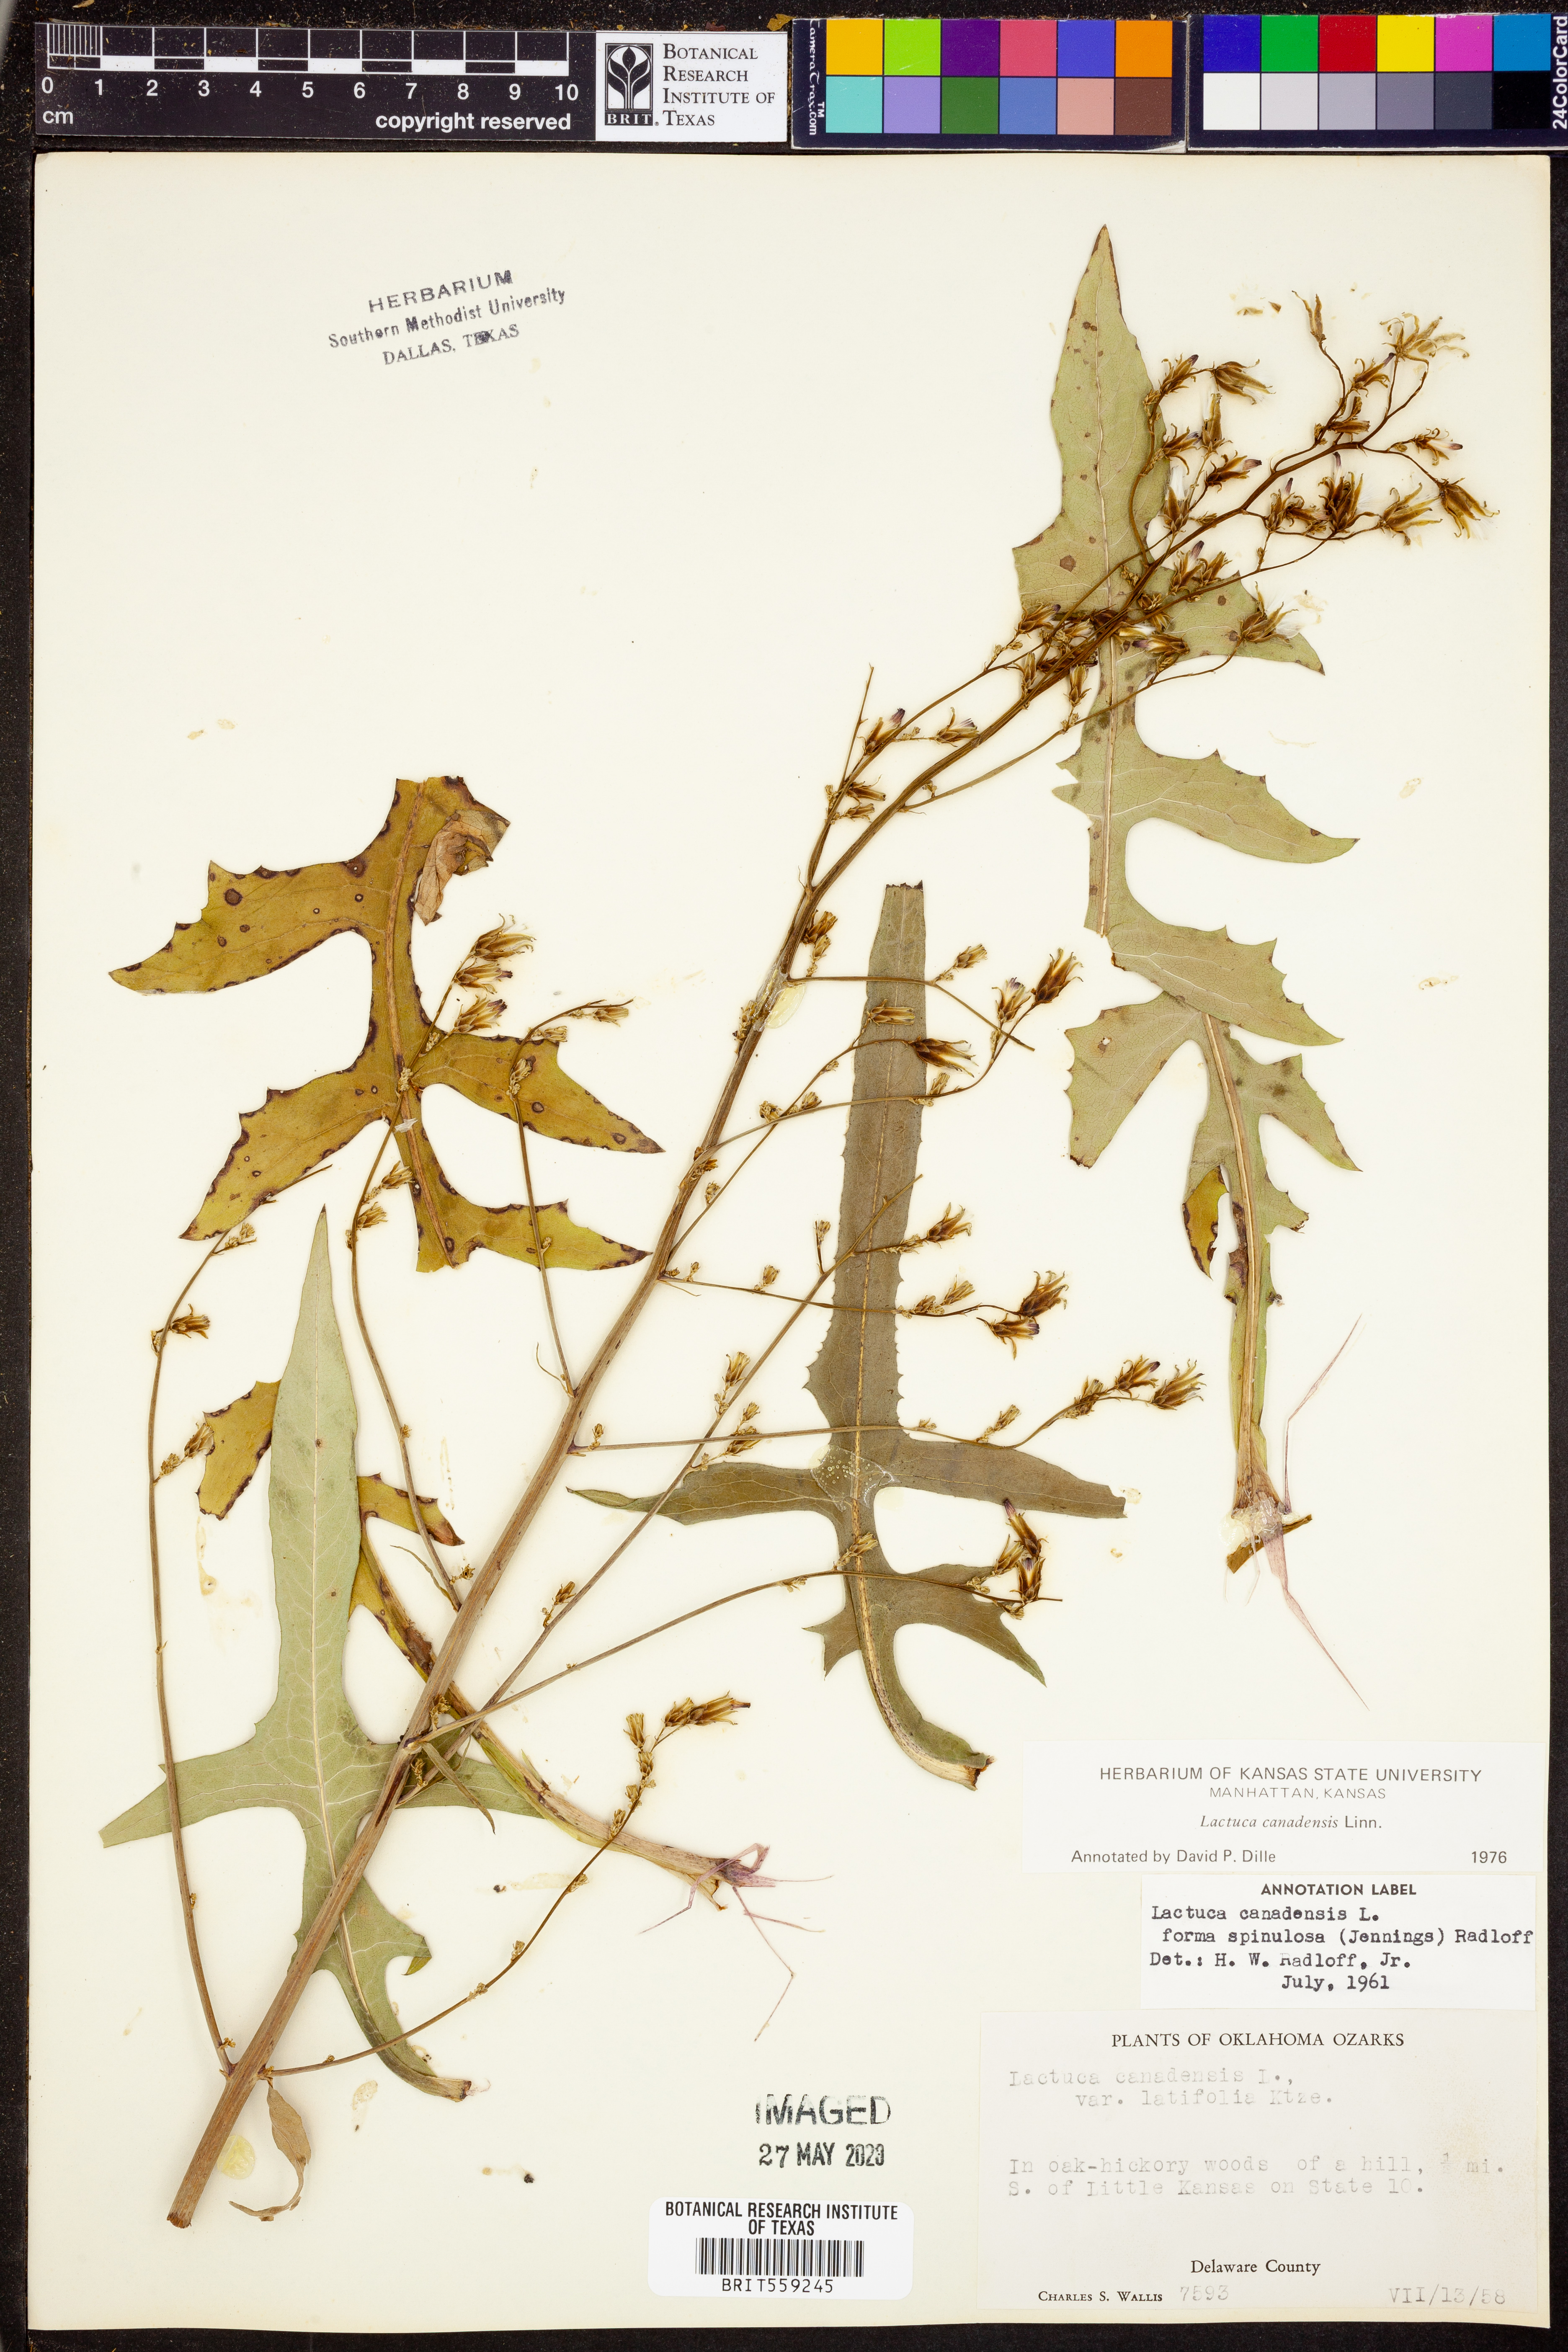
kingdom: Plantae
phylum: Tracheophyta
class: Magnoliopsida
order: Asterales
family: Asteraceae
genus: Lactuca
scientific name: Lactuca canadensis
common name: Canada lettuce
